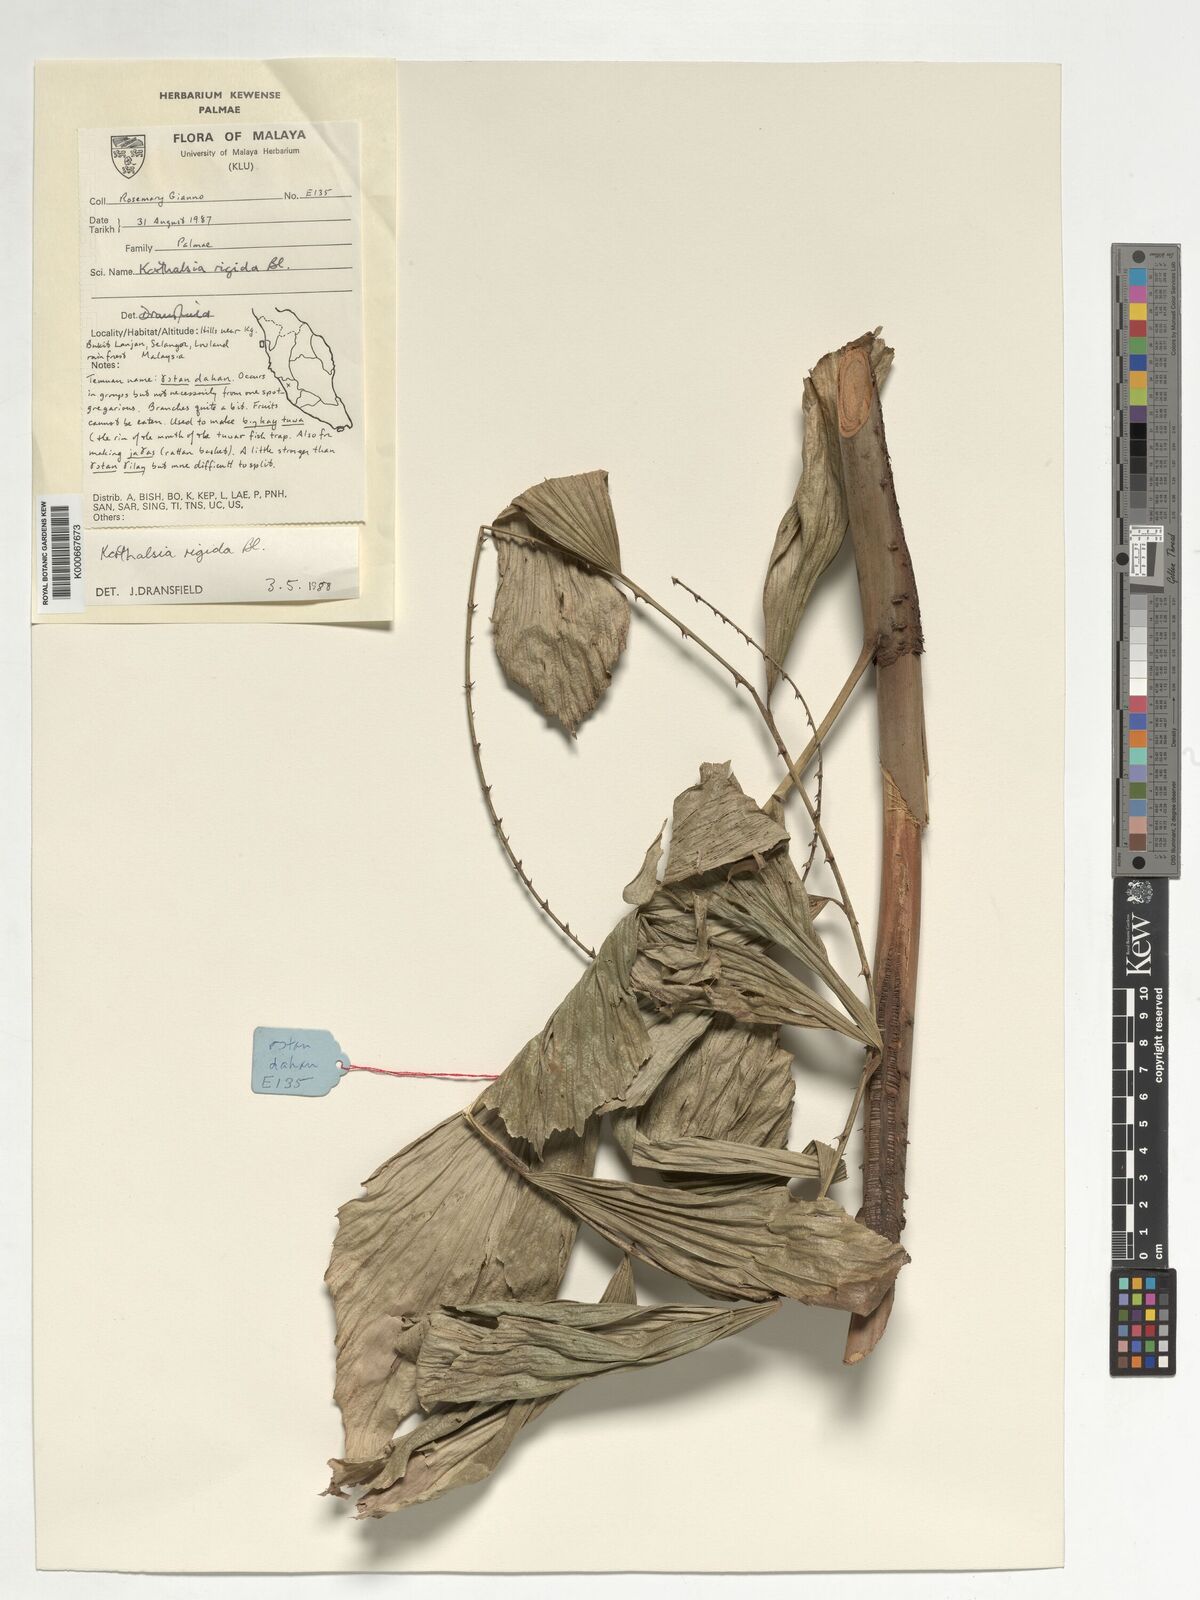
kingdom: Plantae
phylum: Tracheophyta
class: Liliopsida
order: Arecales
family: Arecaceae
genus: Korthalsia
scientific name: Korthalsia rigida
